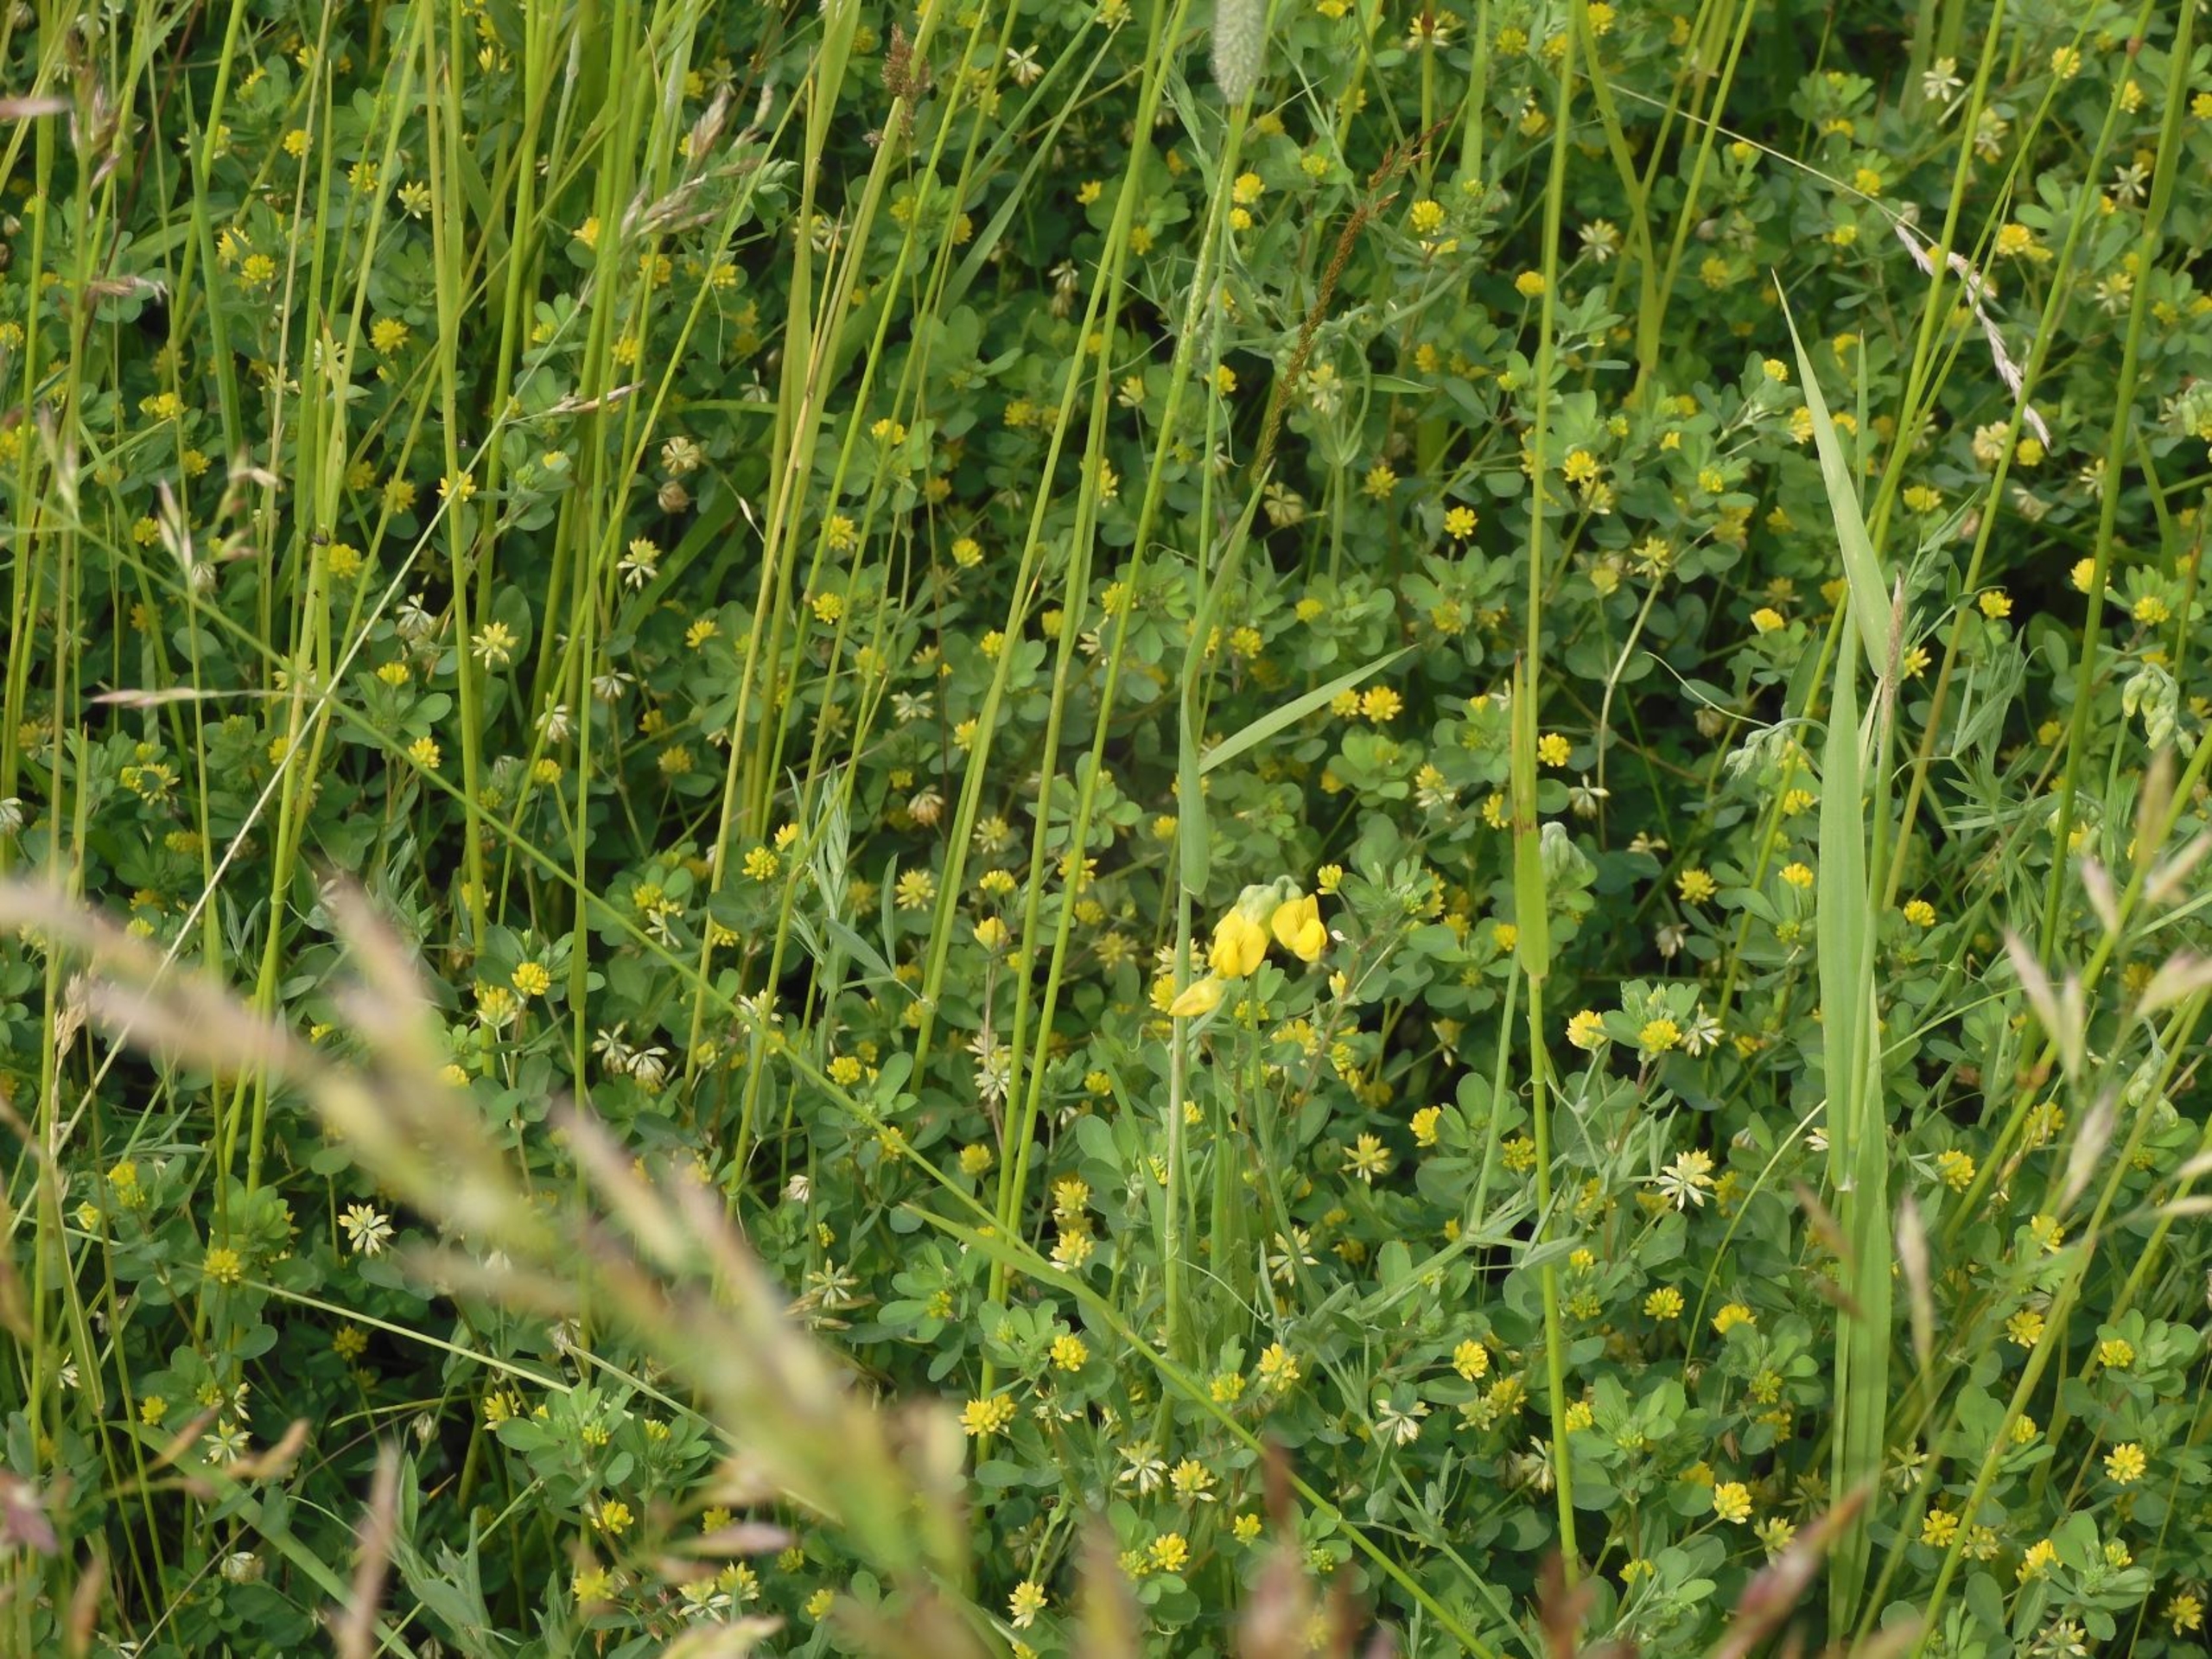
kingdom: Plantae
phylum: Tracheophyta
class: Magnoliopsida
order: Fabales
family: Fabaceae
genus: Trifolium
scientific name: Trifolium dubium
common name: Fin kløver
